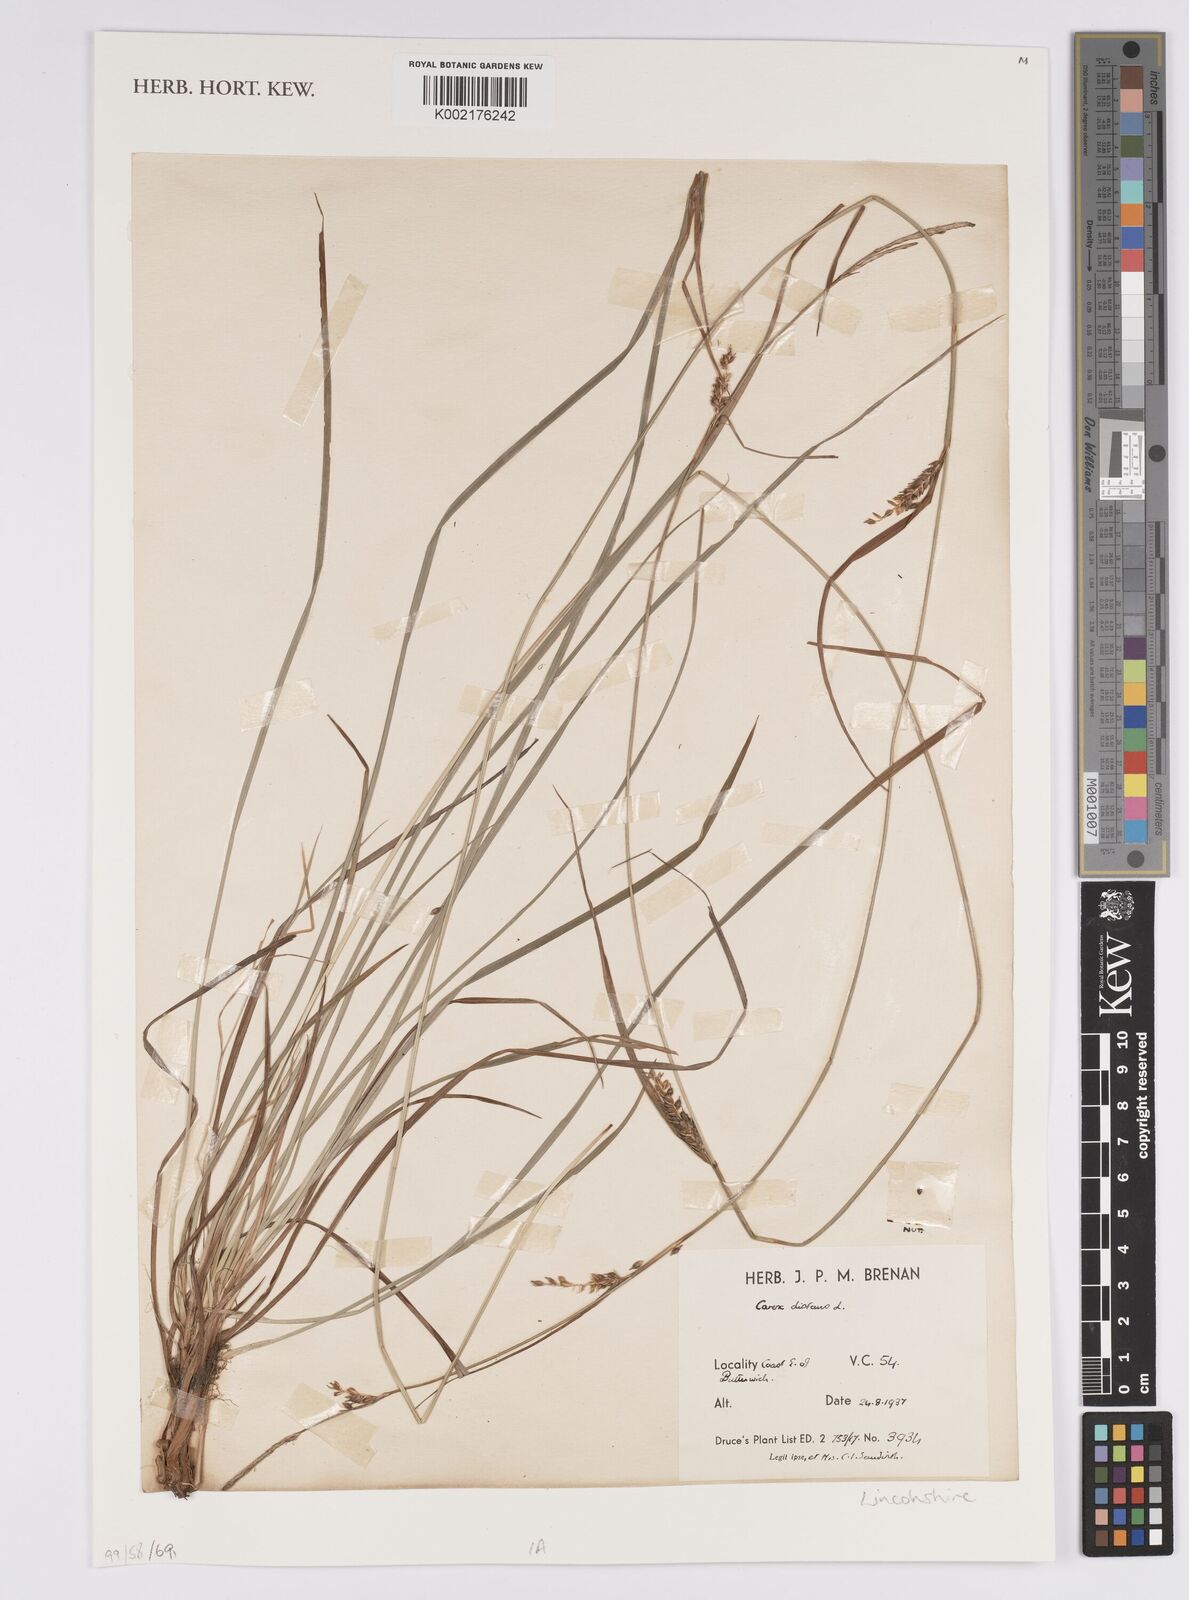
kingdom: Plantae
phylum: Tracheophyta
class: Liliopsida
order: Poales
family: Cyperaceae
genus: Carex
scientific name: Carex distans
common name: Distant sedge
